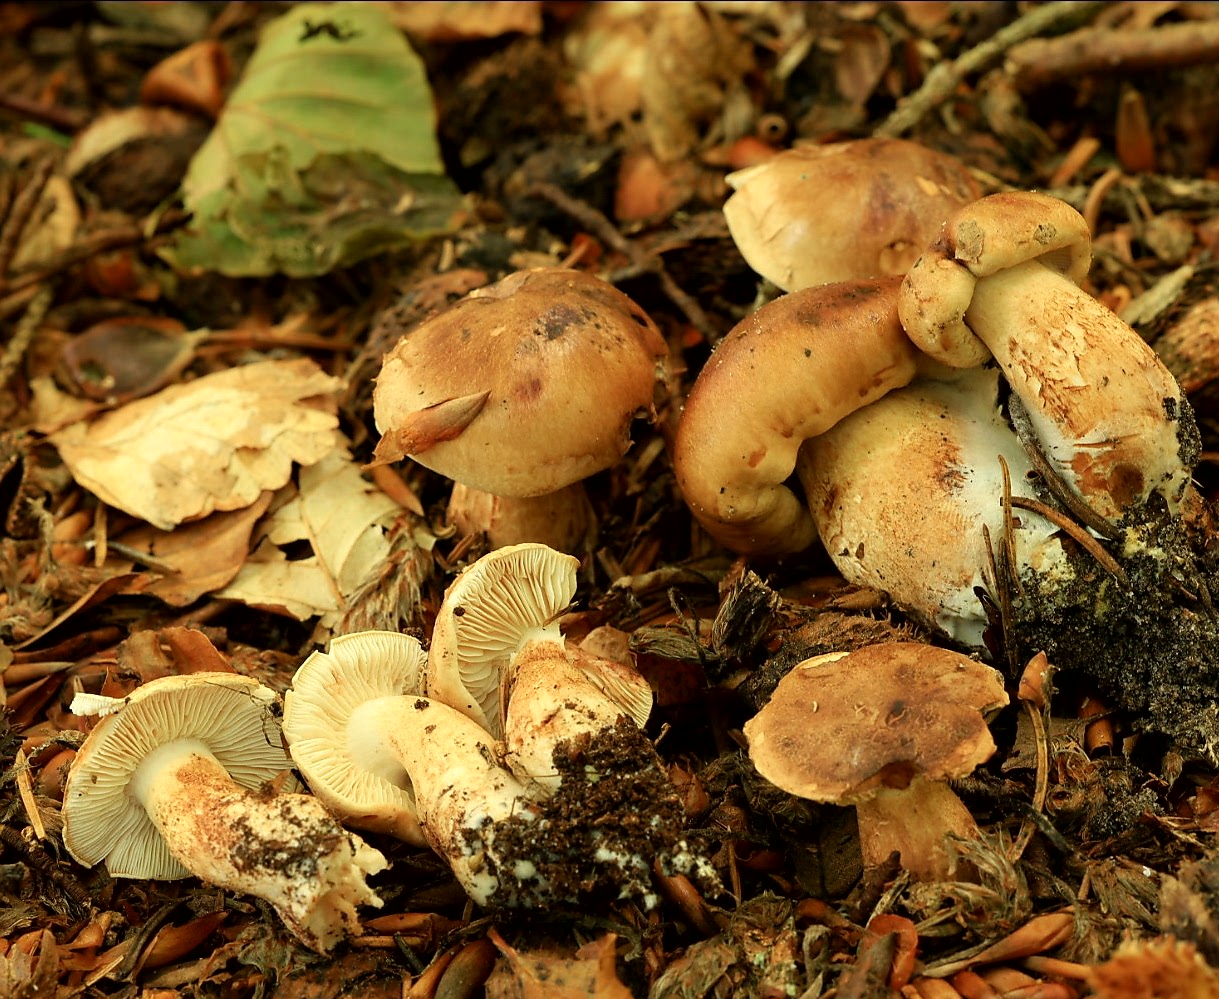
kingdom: Fungi
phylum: Basidiomycota
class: Agaricomycetes
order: Agaricales
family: Tricholomataceae
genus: Tricholoma
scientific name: Tricholoma ustale
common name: sveden ridderhat
